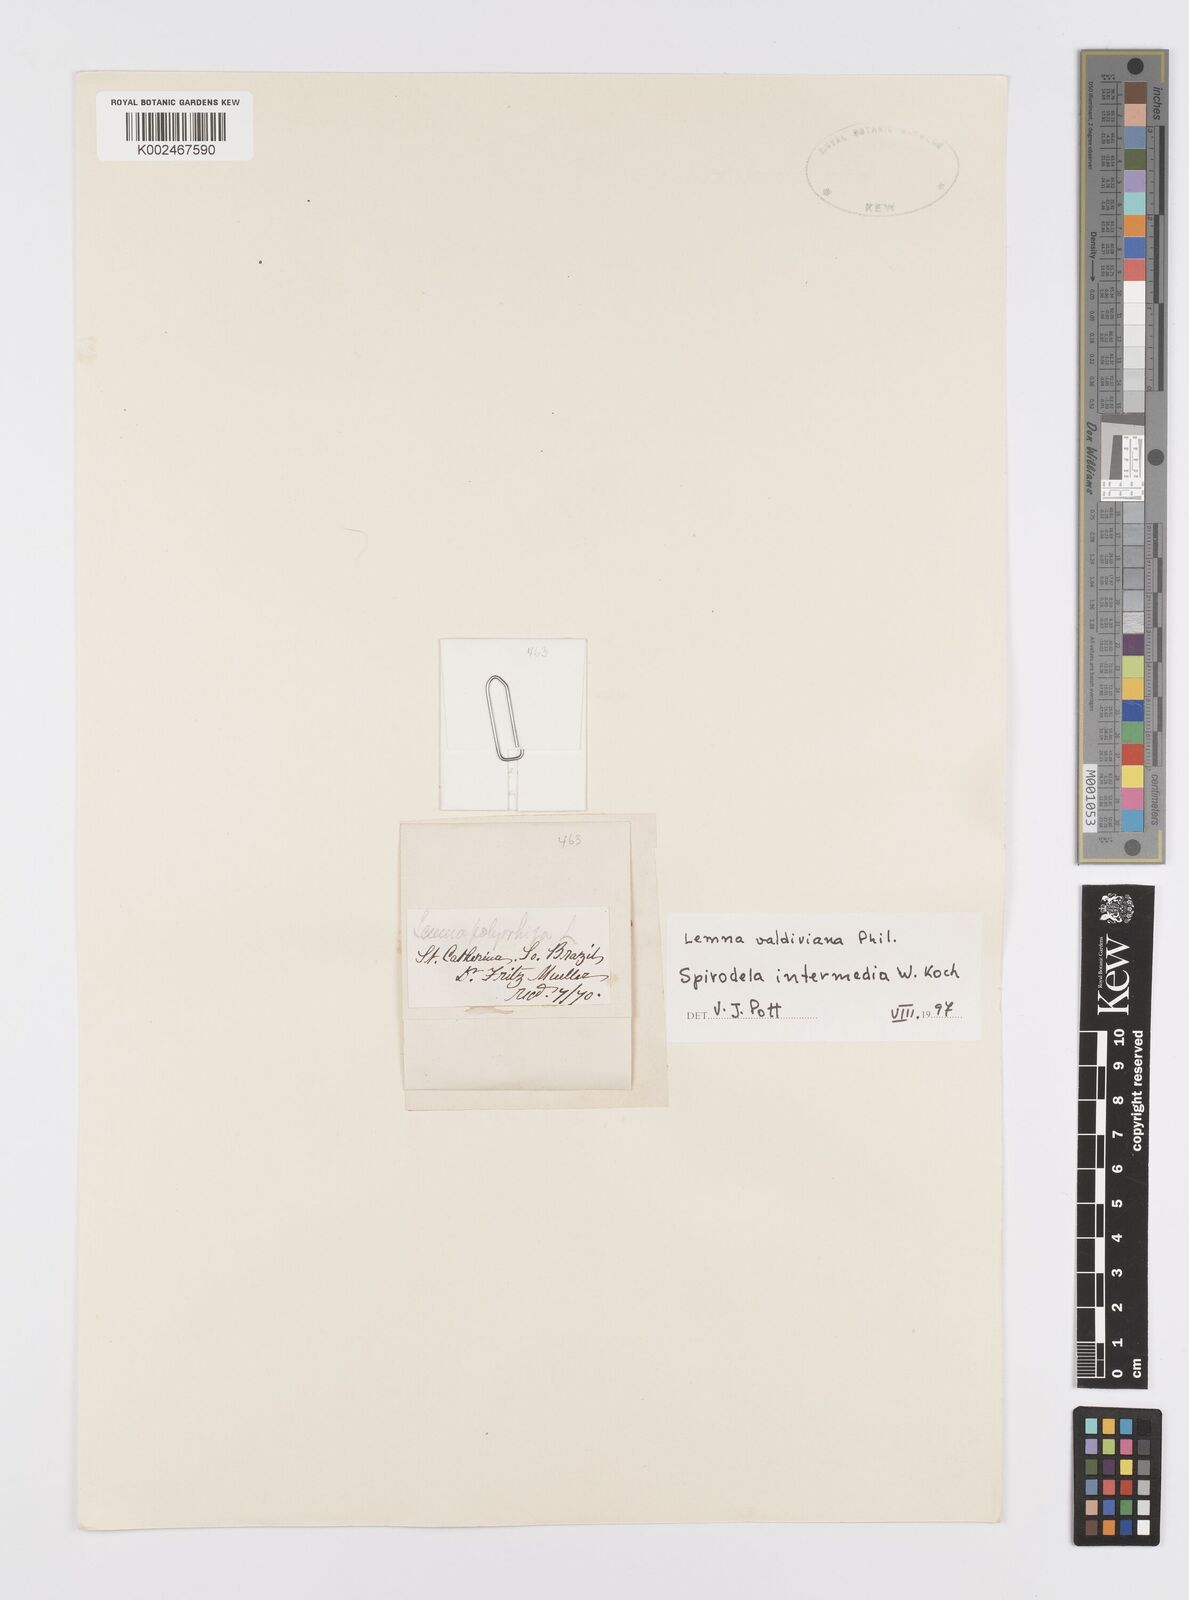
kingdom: Plantae
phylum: Tracheophyta
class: Liliopsida
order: Alismatales
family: Araceae
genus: Spirodela
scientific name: Spirodela punctata
